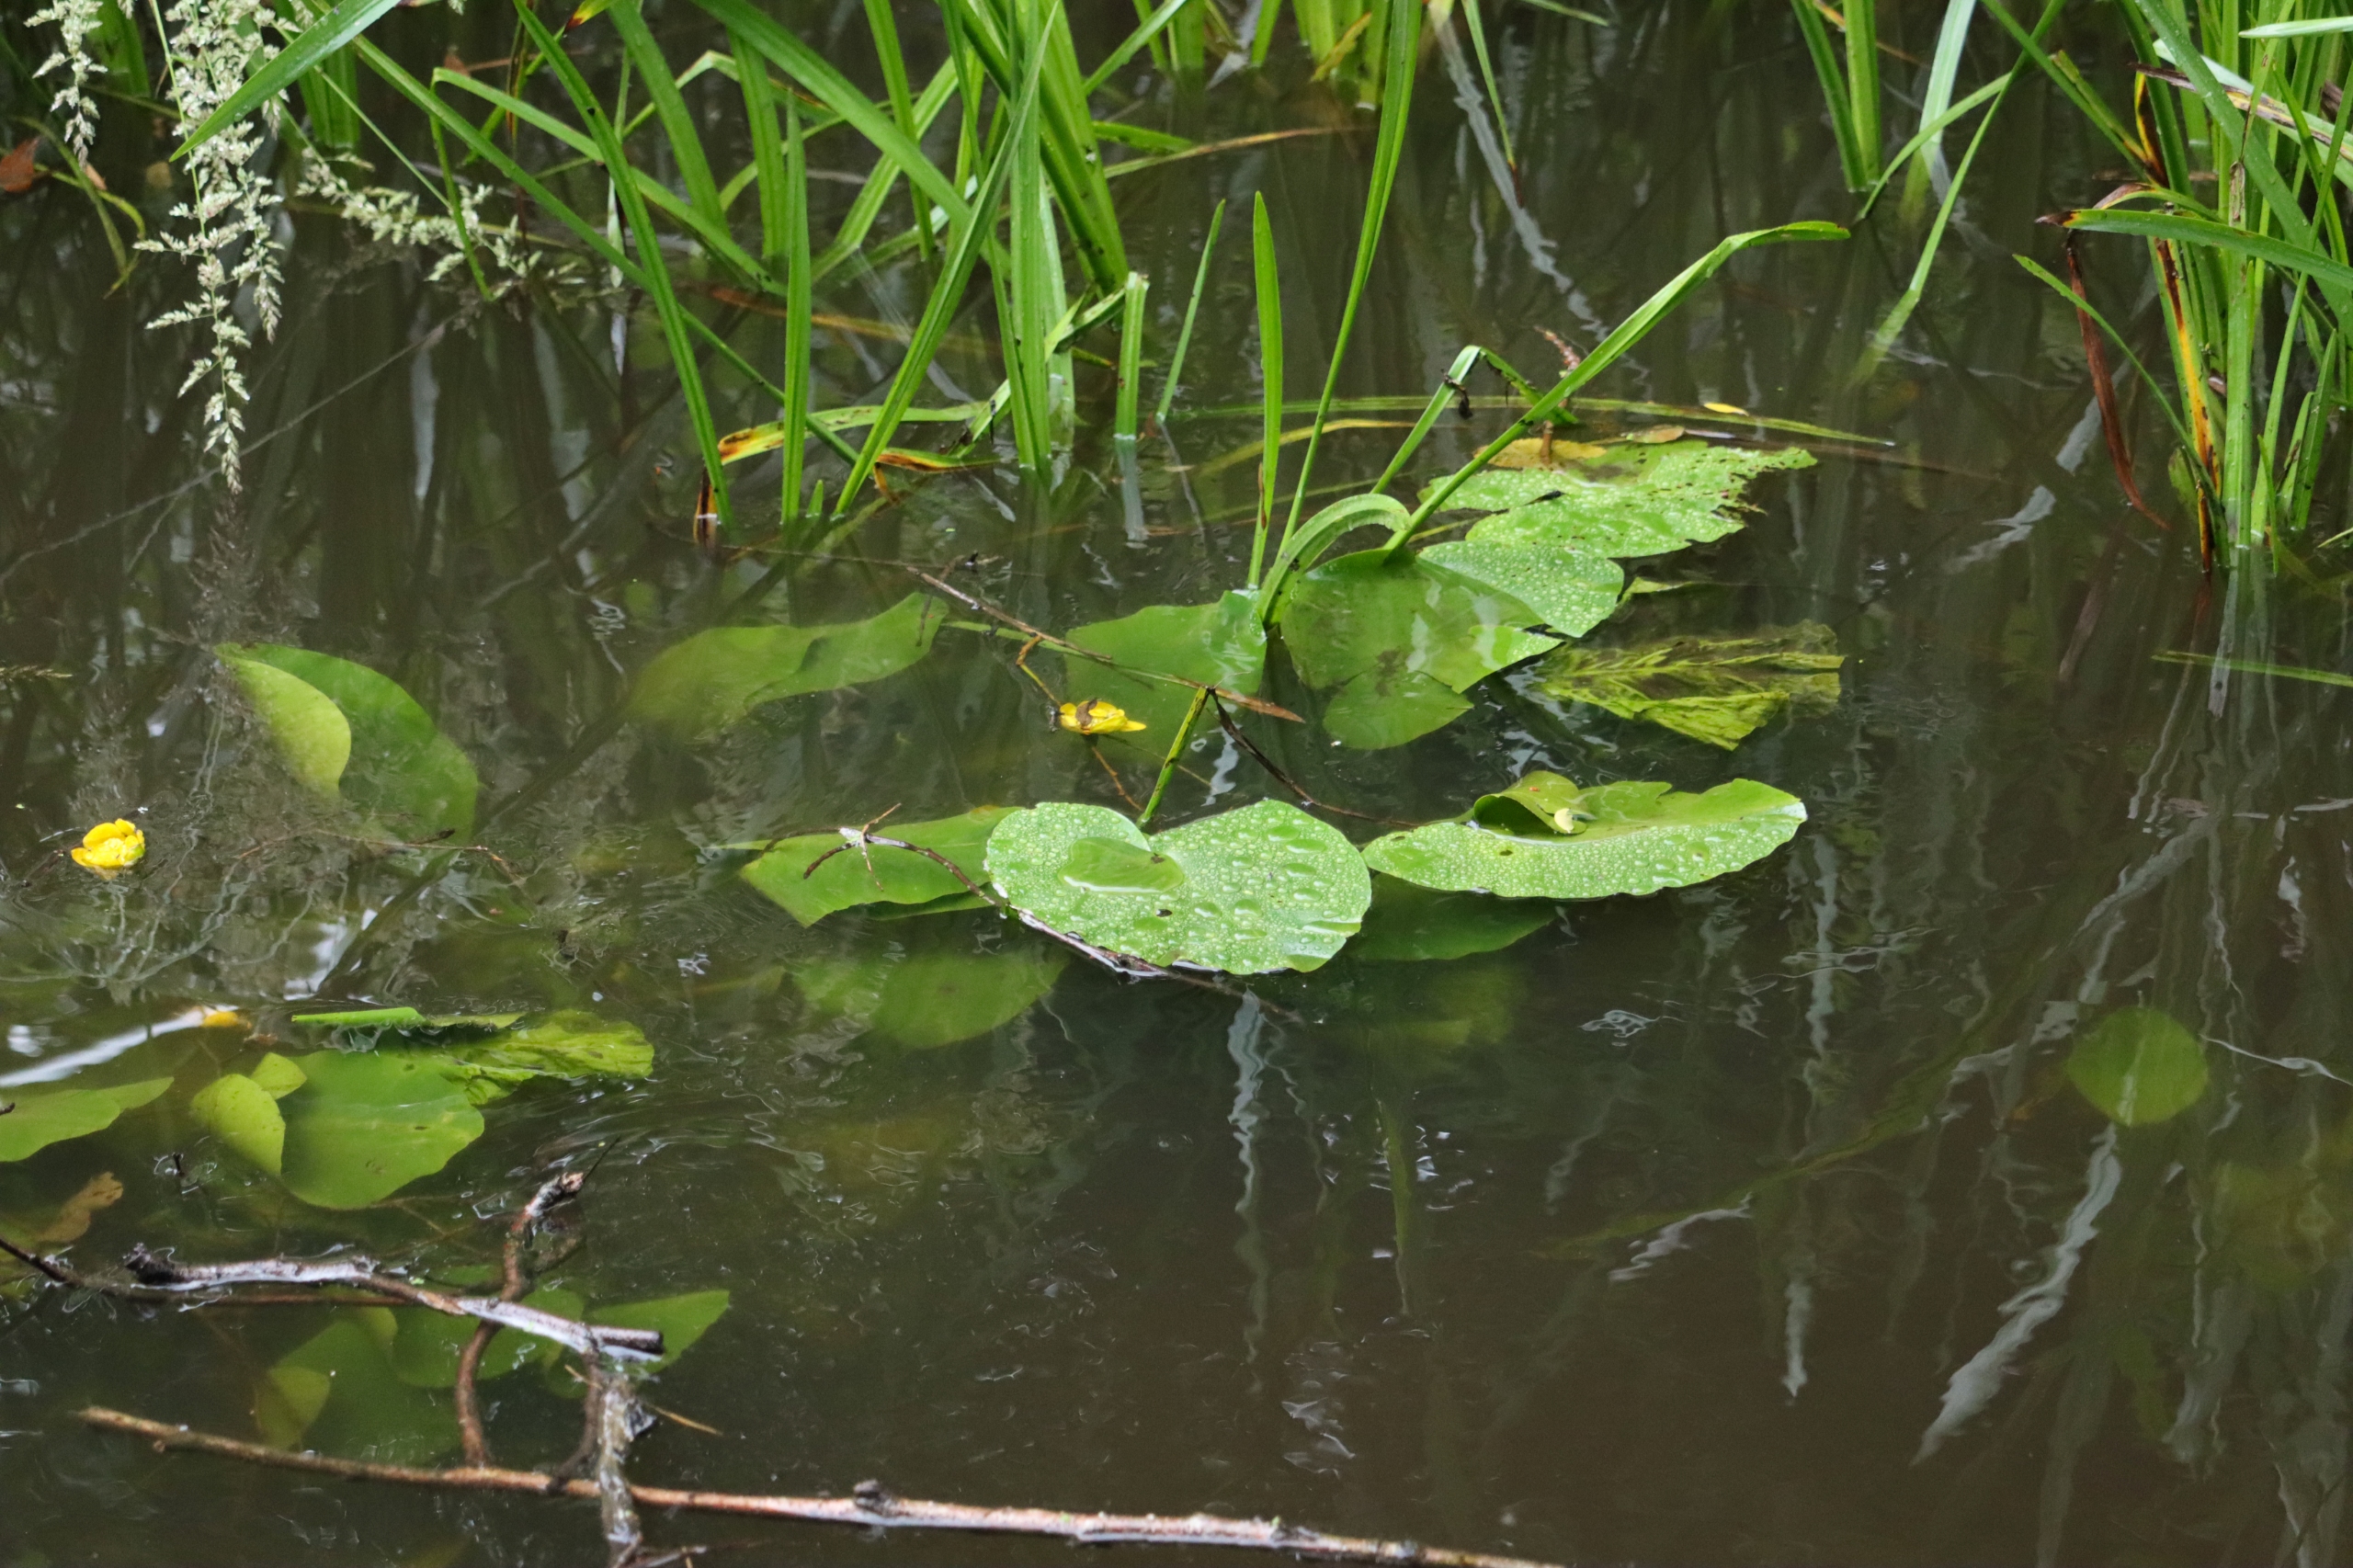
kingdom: Plantae
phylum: Tracheophyta
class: Magnoliopsida
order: Nymphaeales
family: Nymphaeaceae
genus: Nuphar
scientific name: Nuphar lutea
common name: Gul åkande
